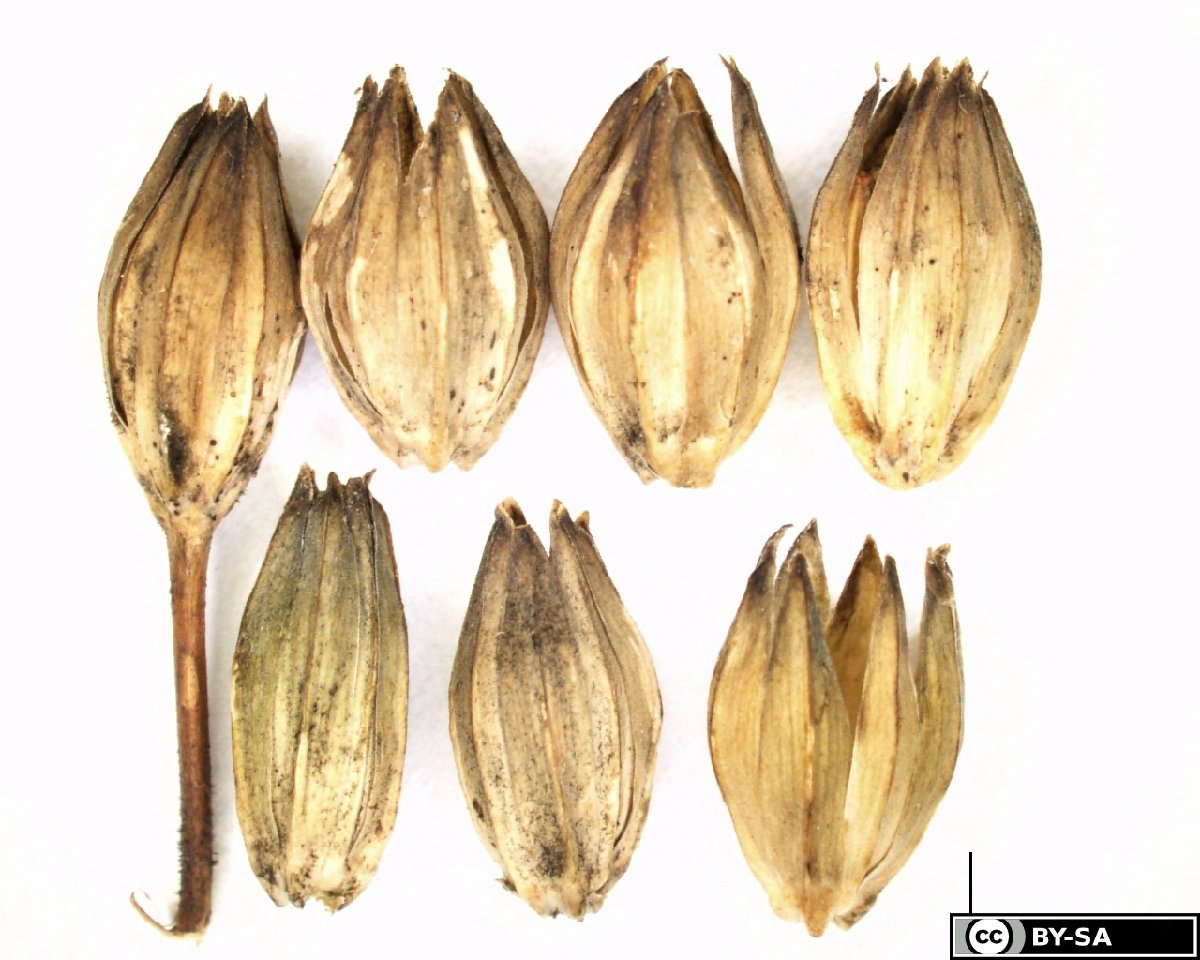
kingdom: Plantae
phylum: Tracheophyta
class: Magnoliopsida
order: Asterales
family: Asteraceae
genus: Lapsana
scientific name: Lapsana communis
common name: Nipplewort
